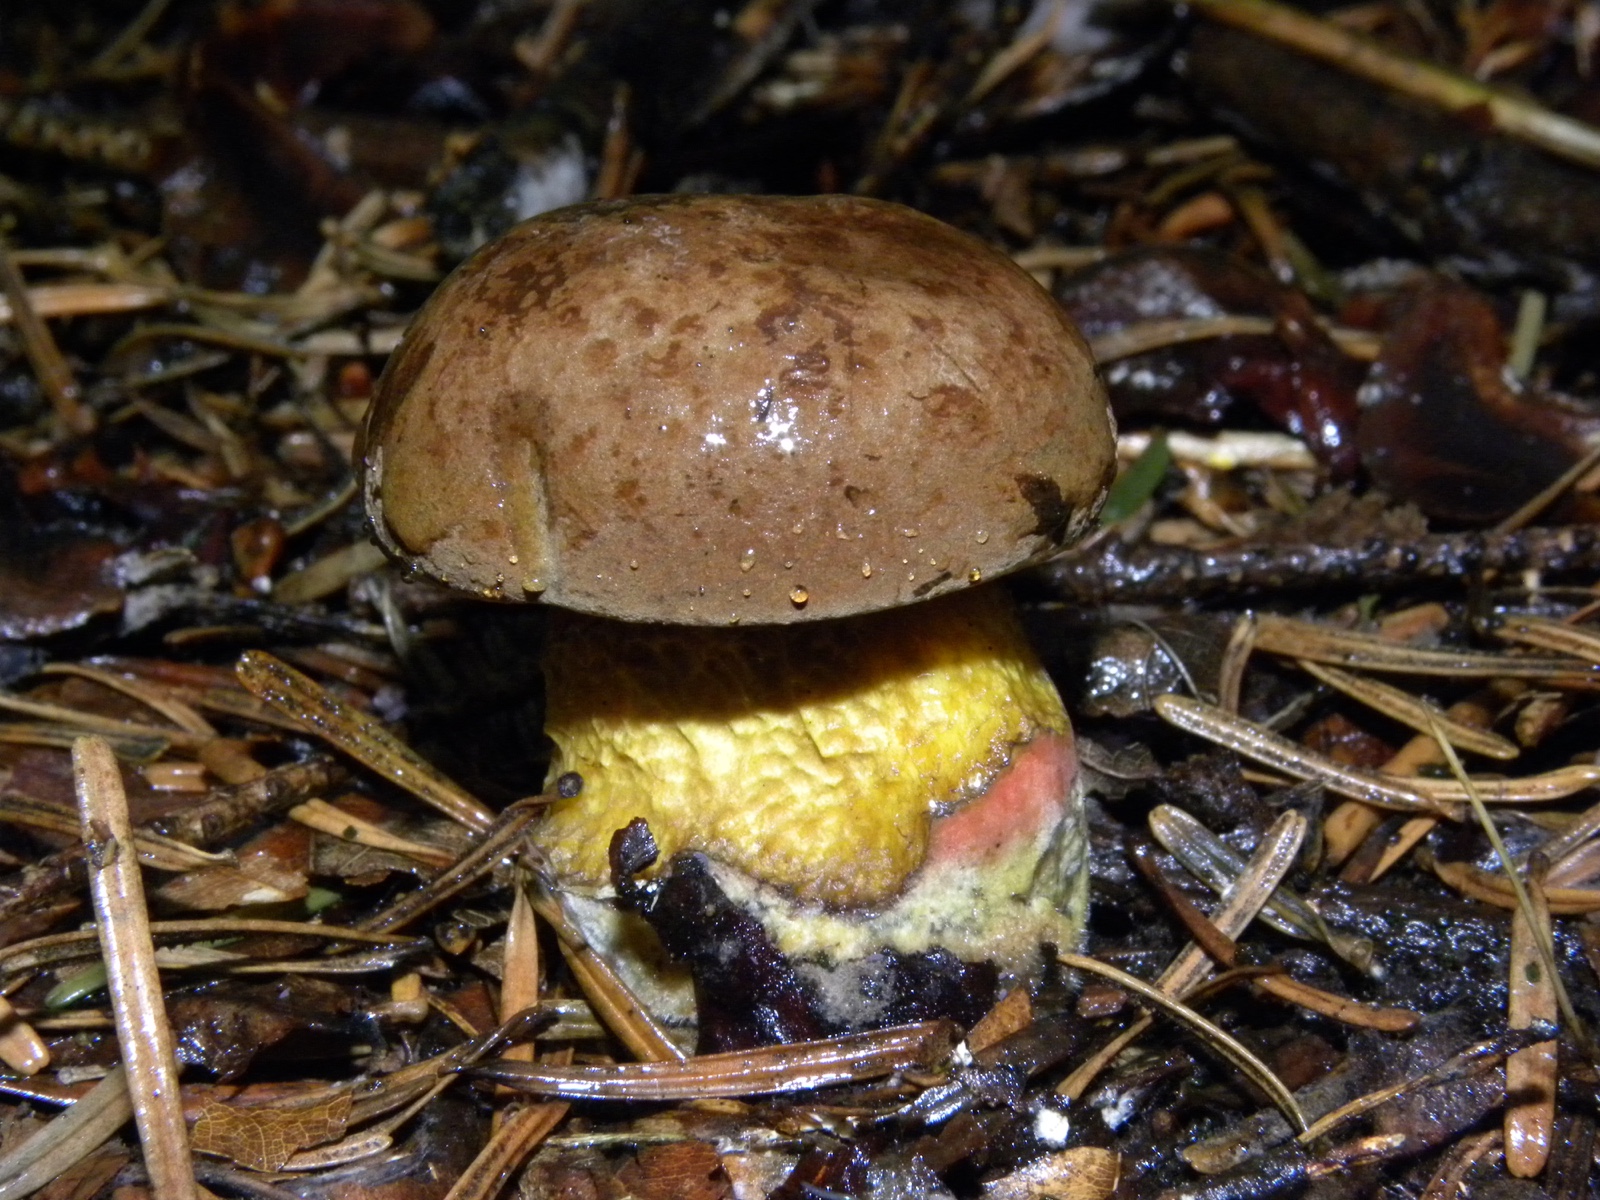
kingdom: Fungi
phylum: Basidiomycota
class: Agaricomycetes
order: Boletales
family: Boletaceae
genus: Neoboletus
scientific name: Neoboletus erythropus
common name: punktstokket indigorørhat
